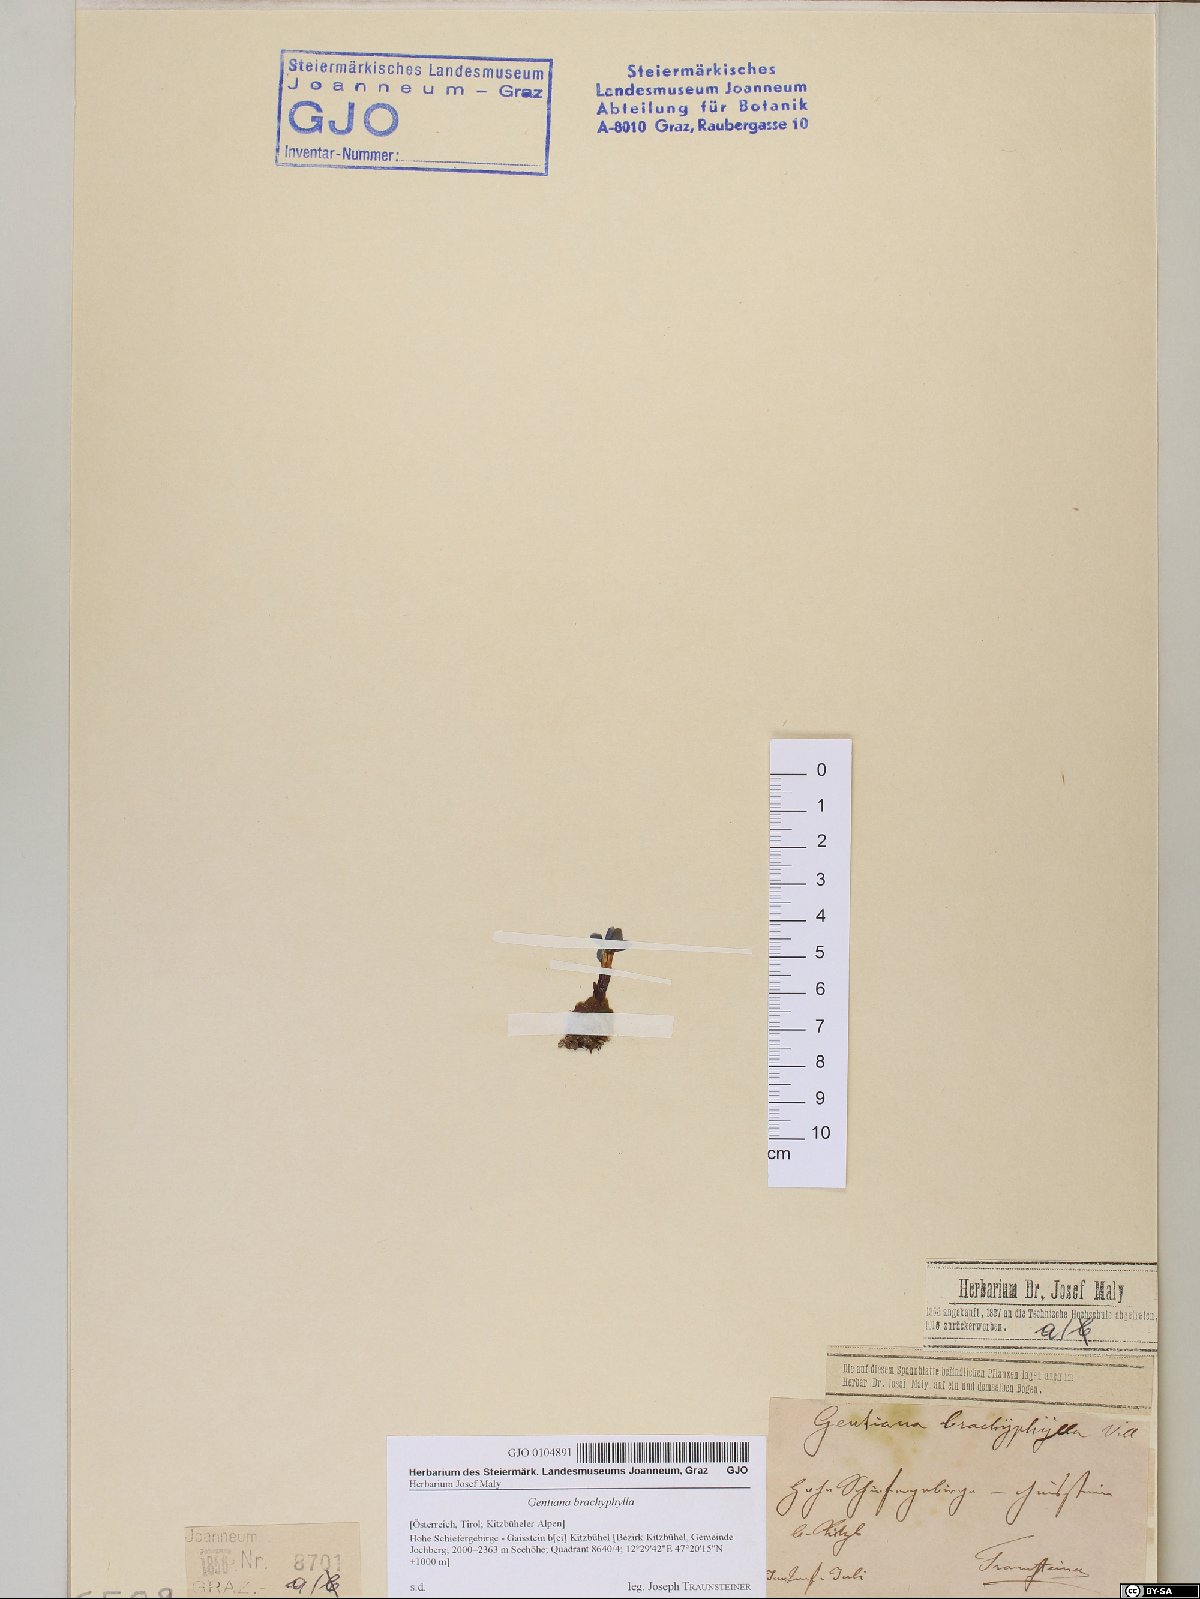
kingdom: Plantae
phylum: Tracheophyta
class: Magnoliopsida
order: Gentianales
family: Gentianaceae
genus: Gentiana
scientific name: Gentiana brachyphylla
